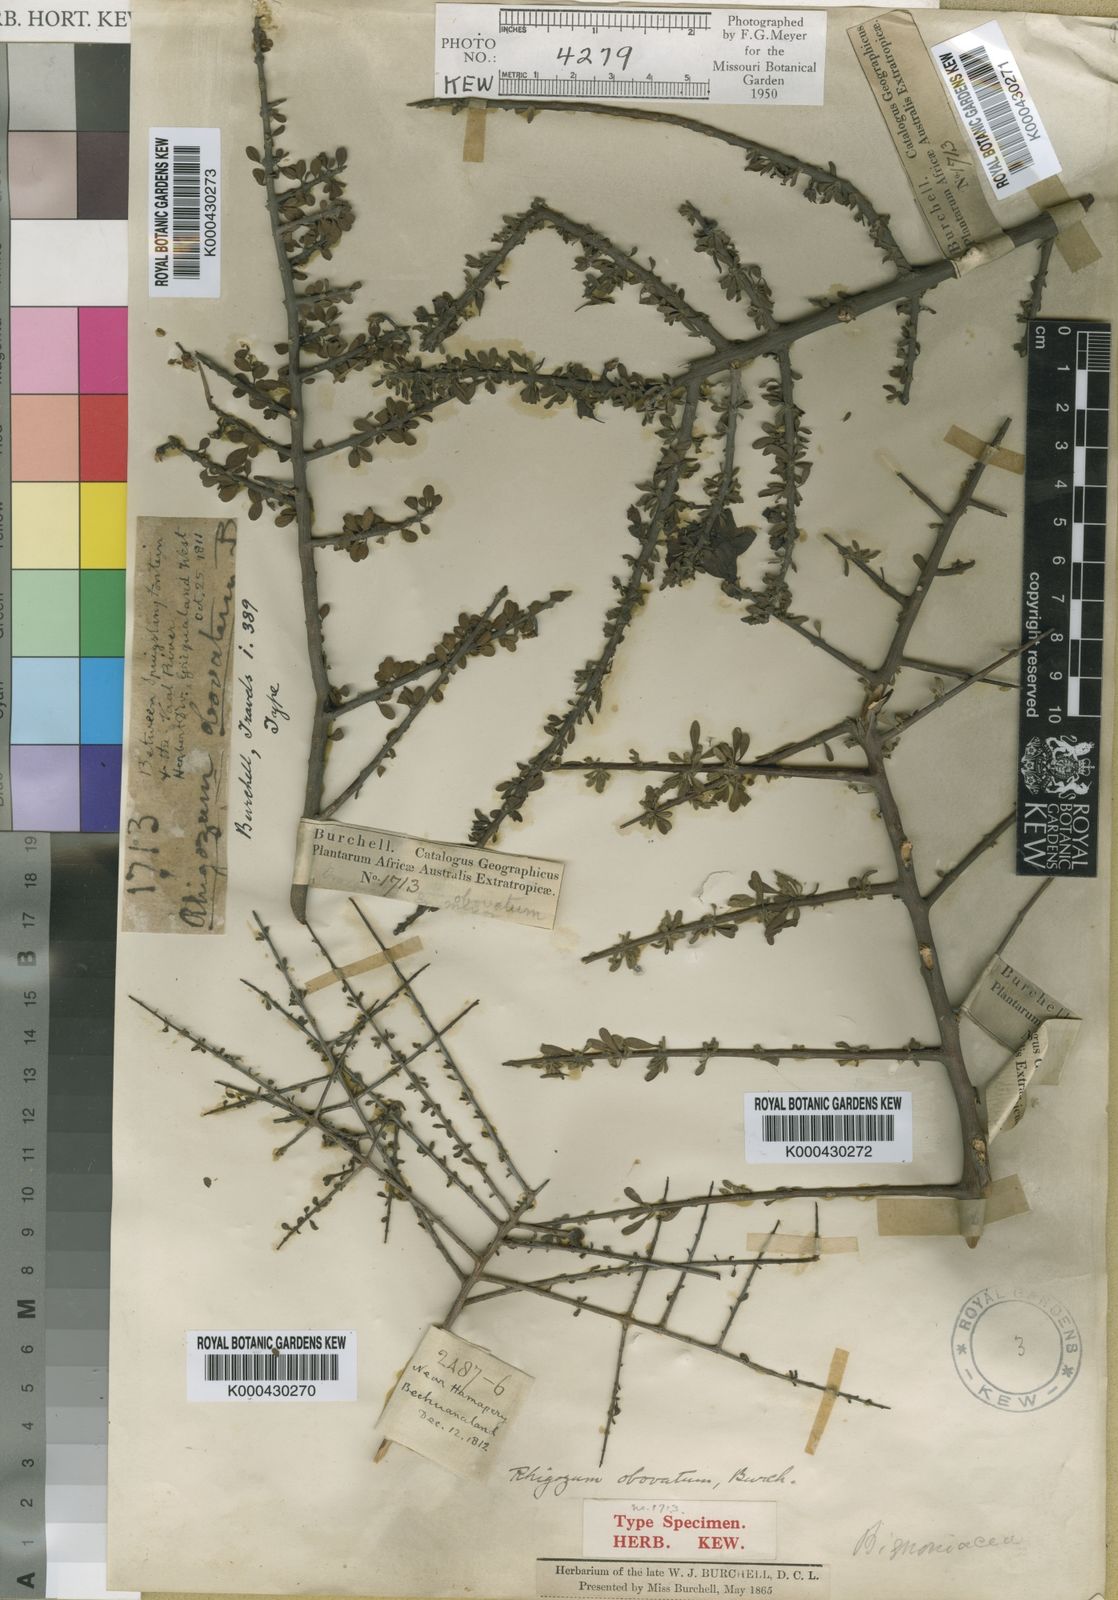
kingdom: Plantae
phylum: Tracheophyta
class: Magnoliopsida
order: Lamiales
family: Bignoniaceae
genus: Rhigozum
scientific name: Rhigozum obovatum
